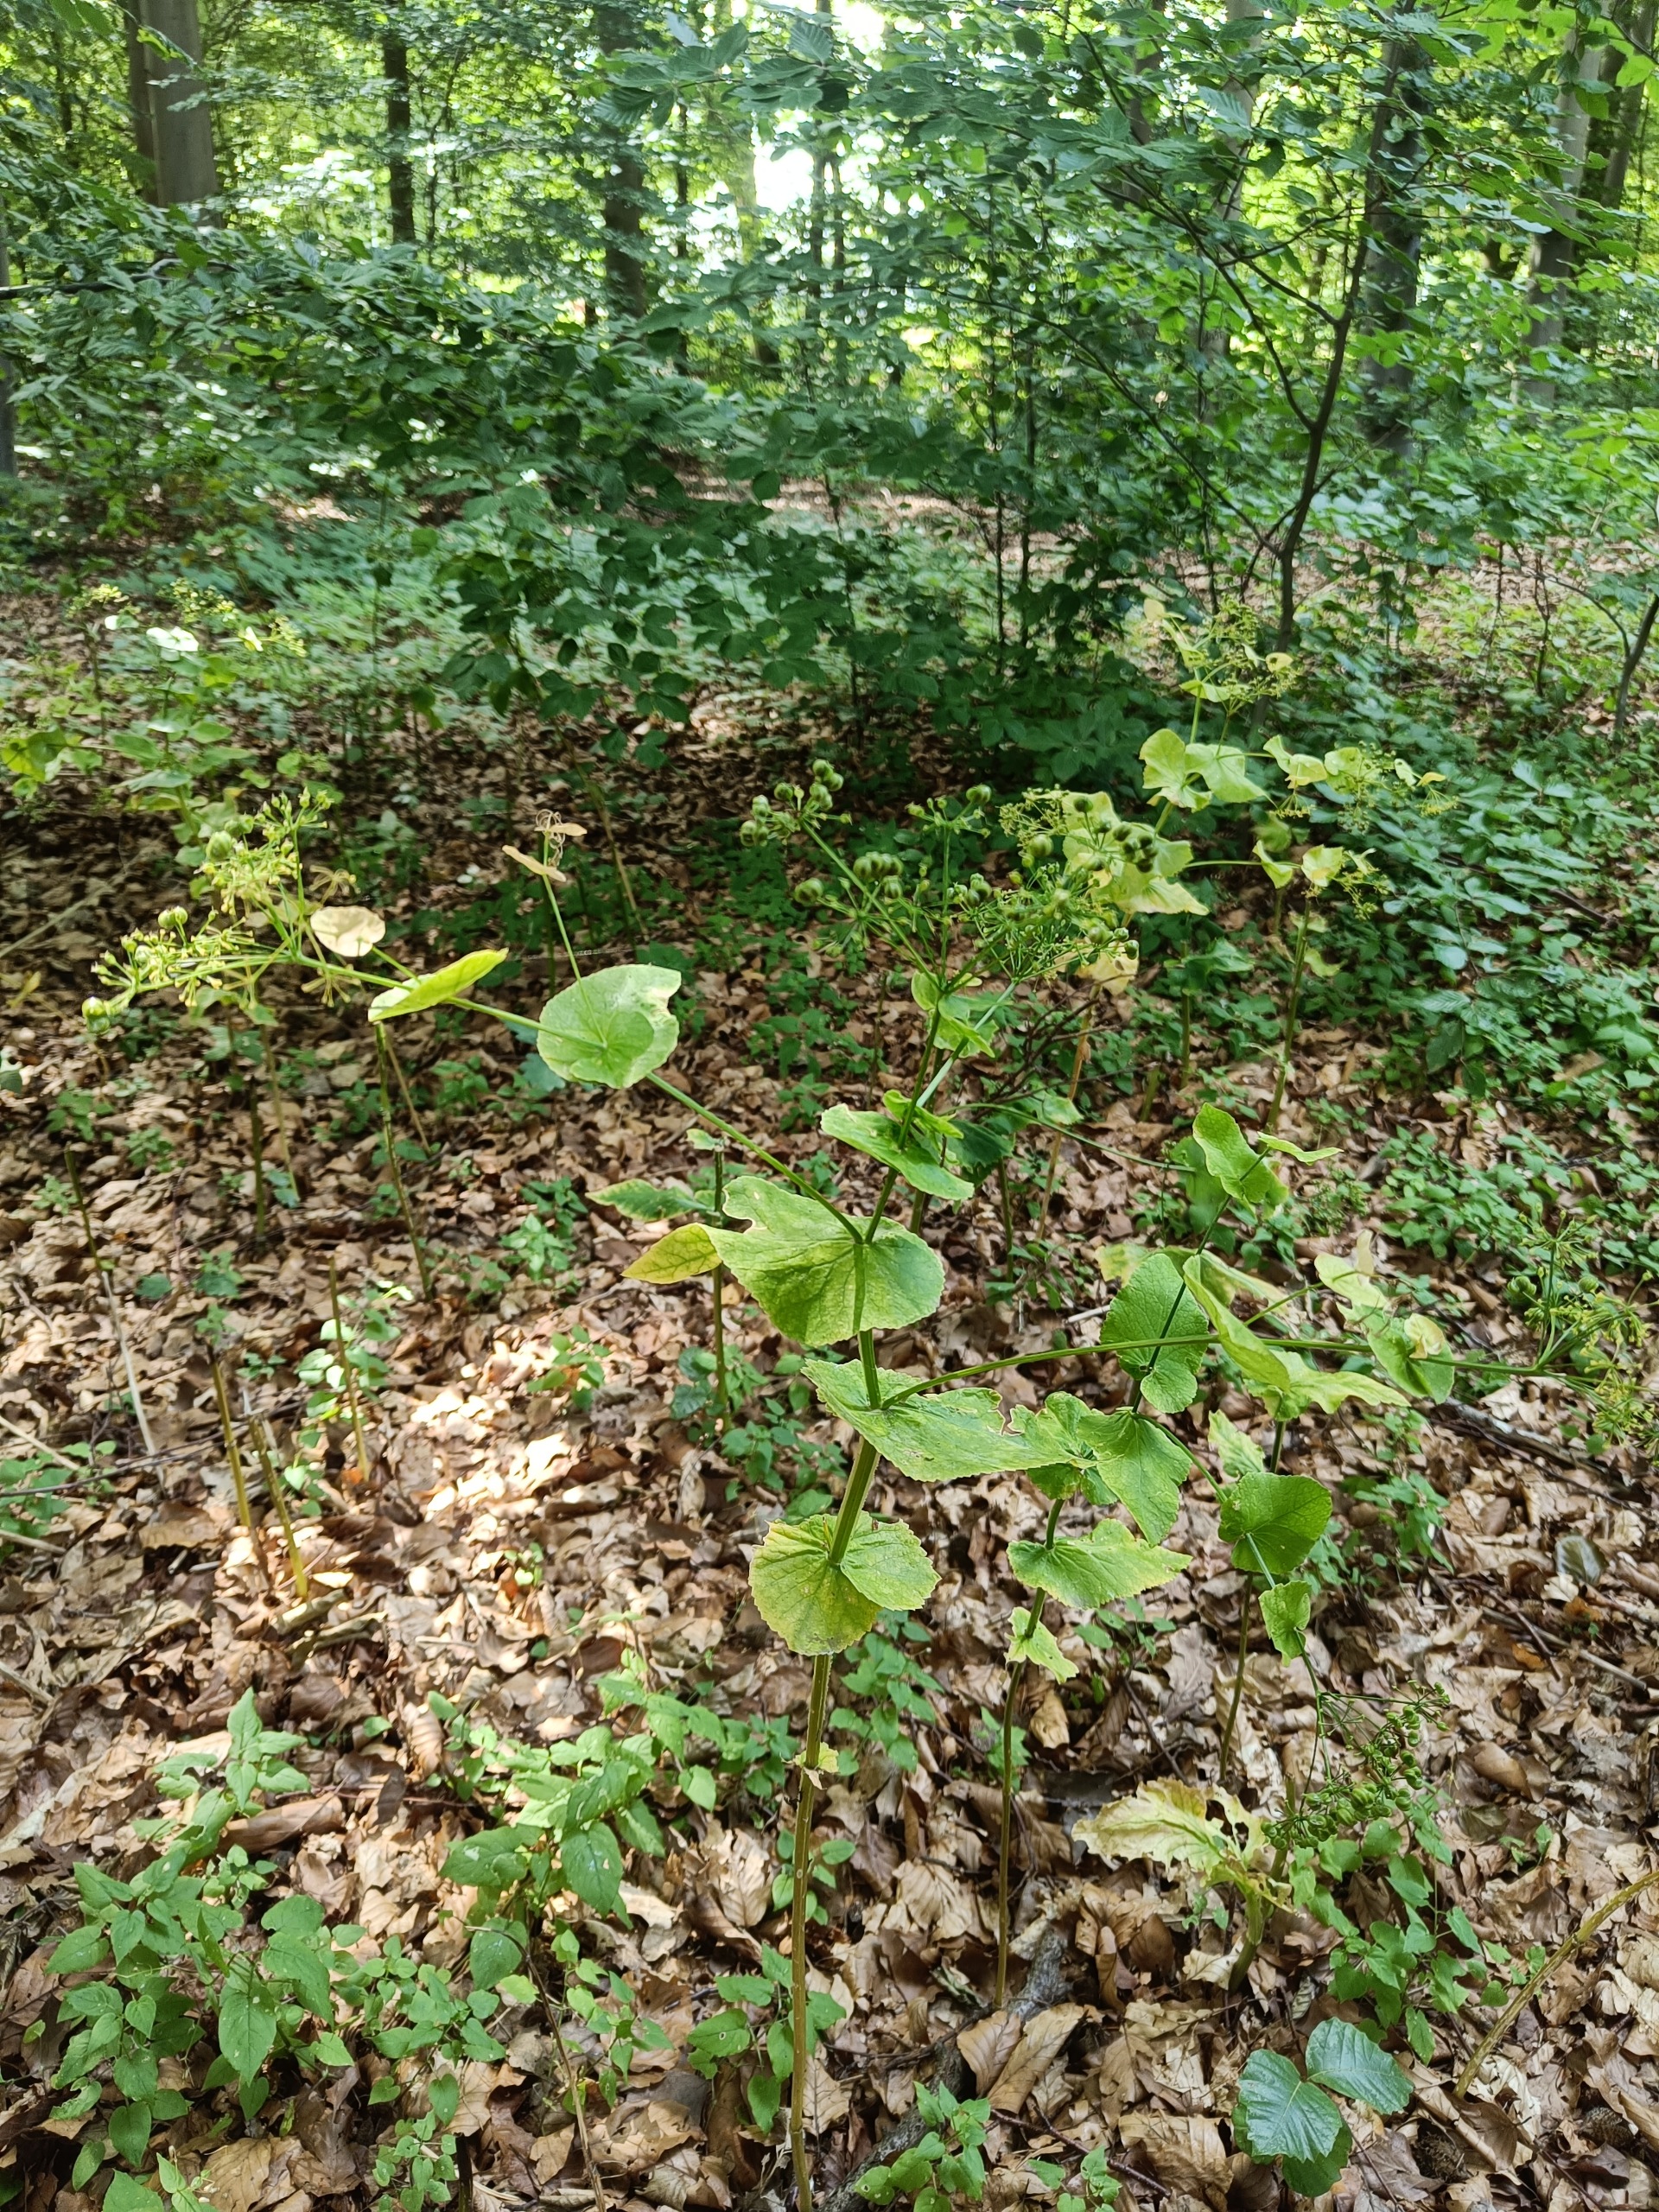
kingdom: Plantae
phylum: Tracheophyta
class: Magnoliopsida
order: Apiales
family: Apiaceae
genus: Smyrnium
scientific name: Smyrnium perfoliatum
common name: Lundgylden
